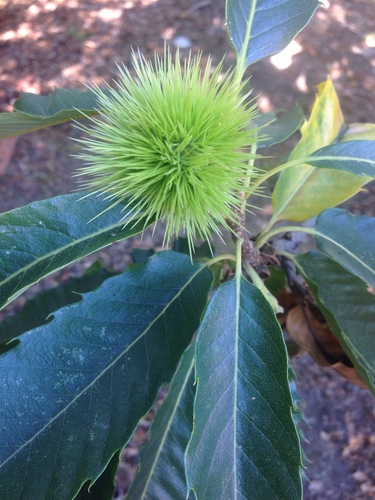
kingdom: Plantae
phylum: Tracheophyta
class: Magnoliopsida
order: Fagales
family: Fagaceae
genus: Castanea
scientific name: Castanea sativa
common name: Sweet chestnut
